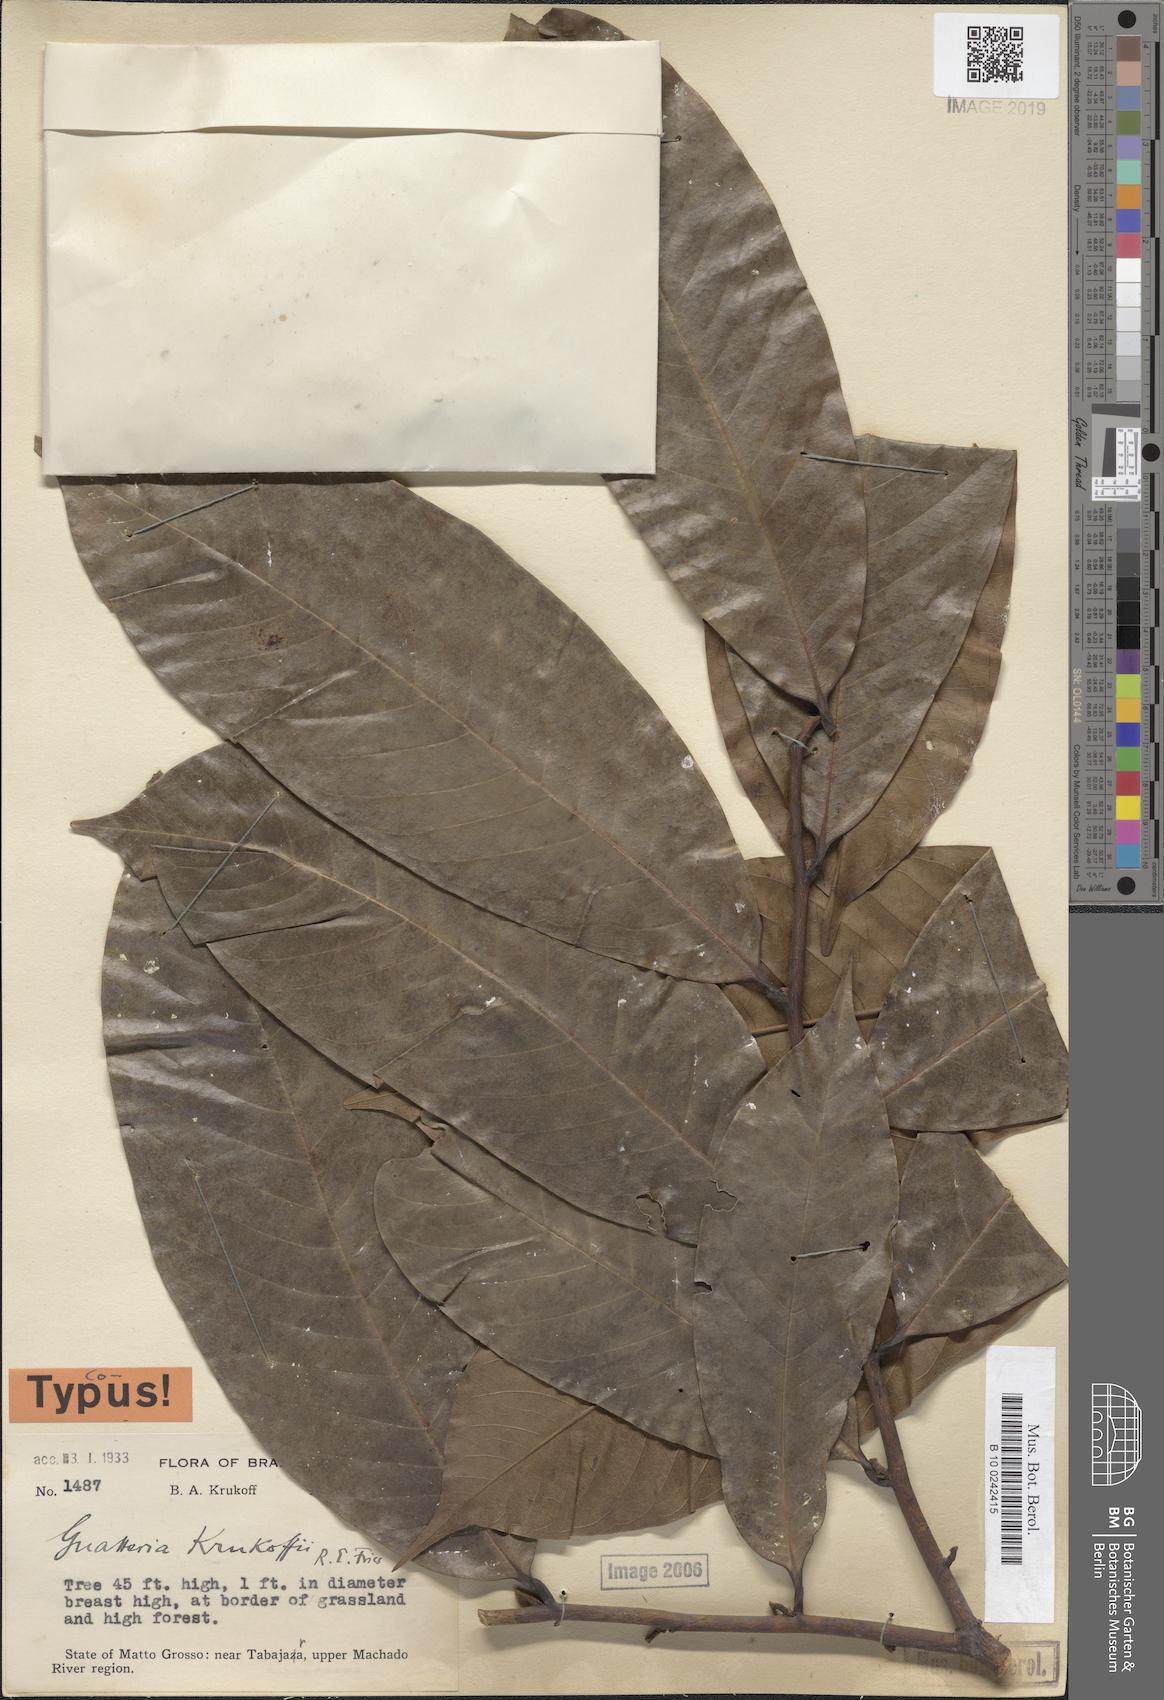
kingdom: Plantae
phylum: Tracheophyta
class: Magnoliopsida
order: Magnoliales
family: Annonaceae
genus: Guatteria
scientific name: Guatteria krukoffii
